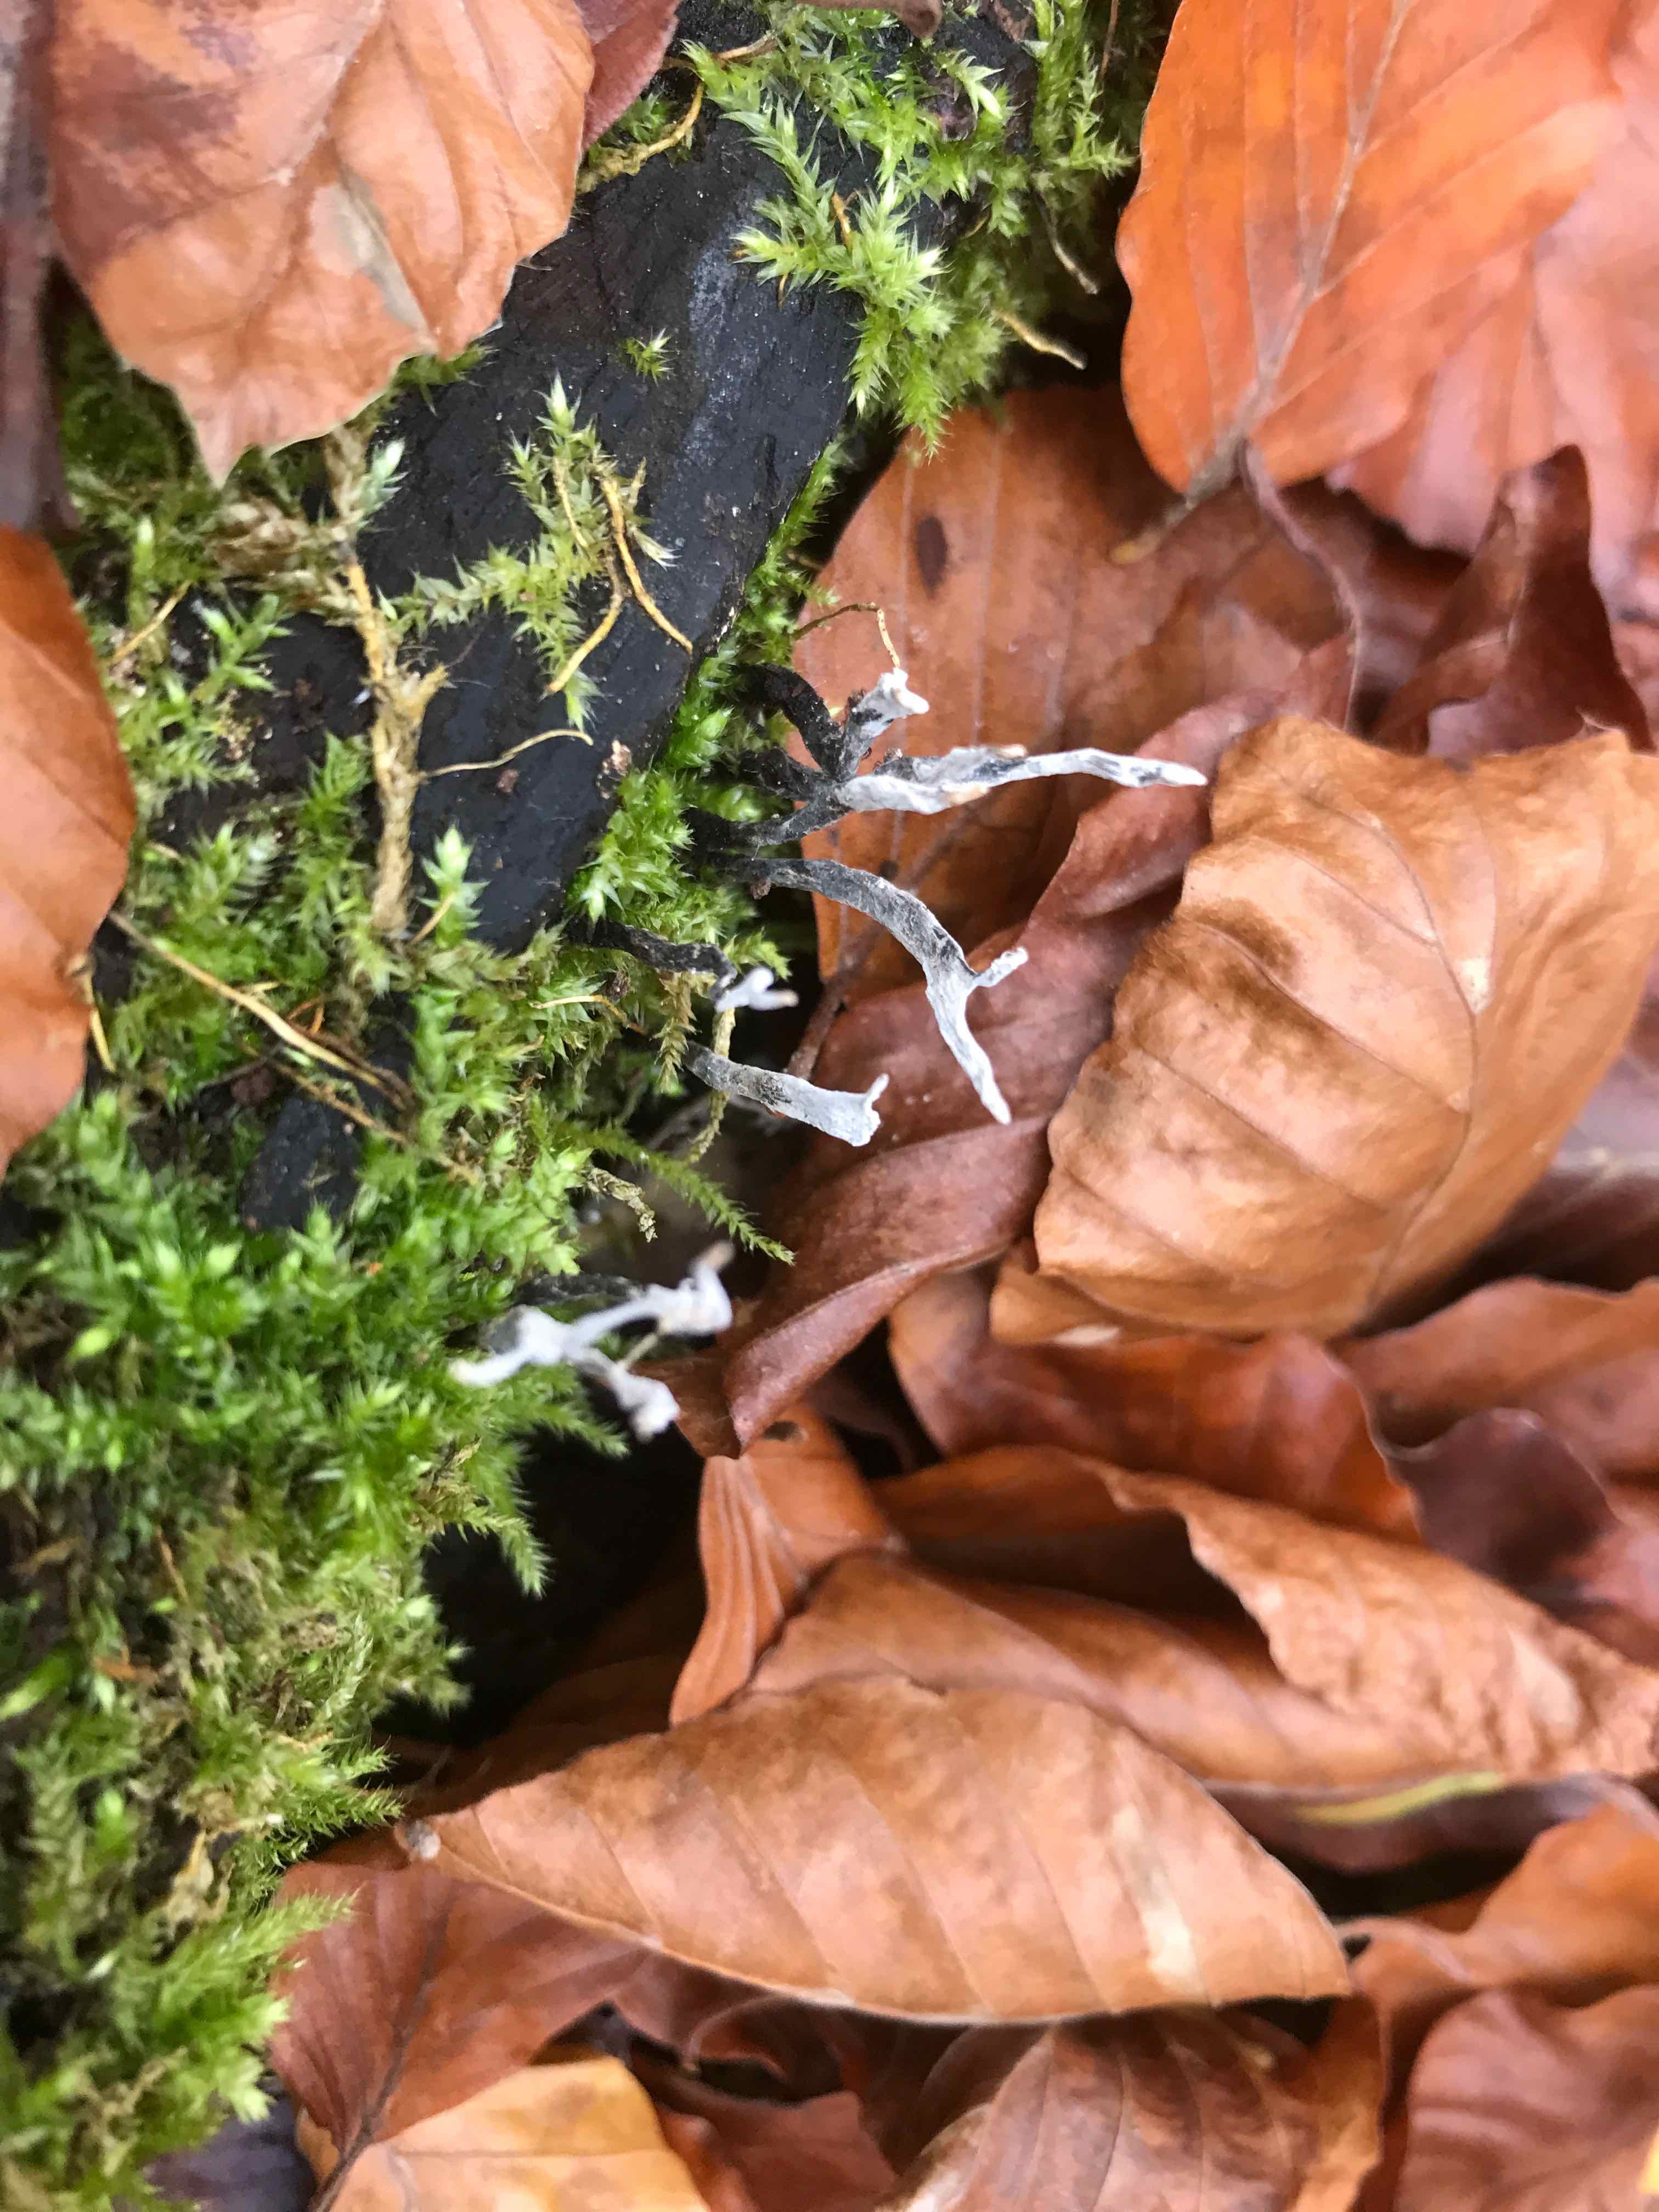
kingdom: Fungi
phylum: Ascomycota
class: Sordariomycetes
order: Xylariales
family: Xylariaceae
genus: Xylaria
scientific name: Xylaria hypoxylon
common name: grenet stødsvamp
